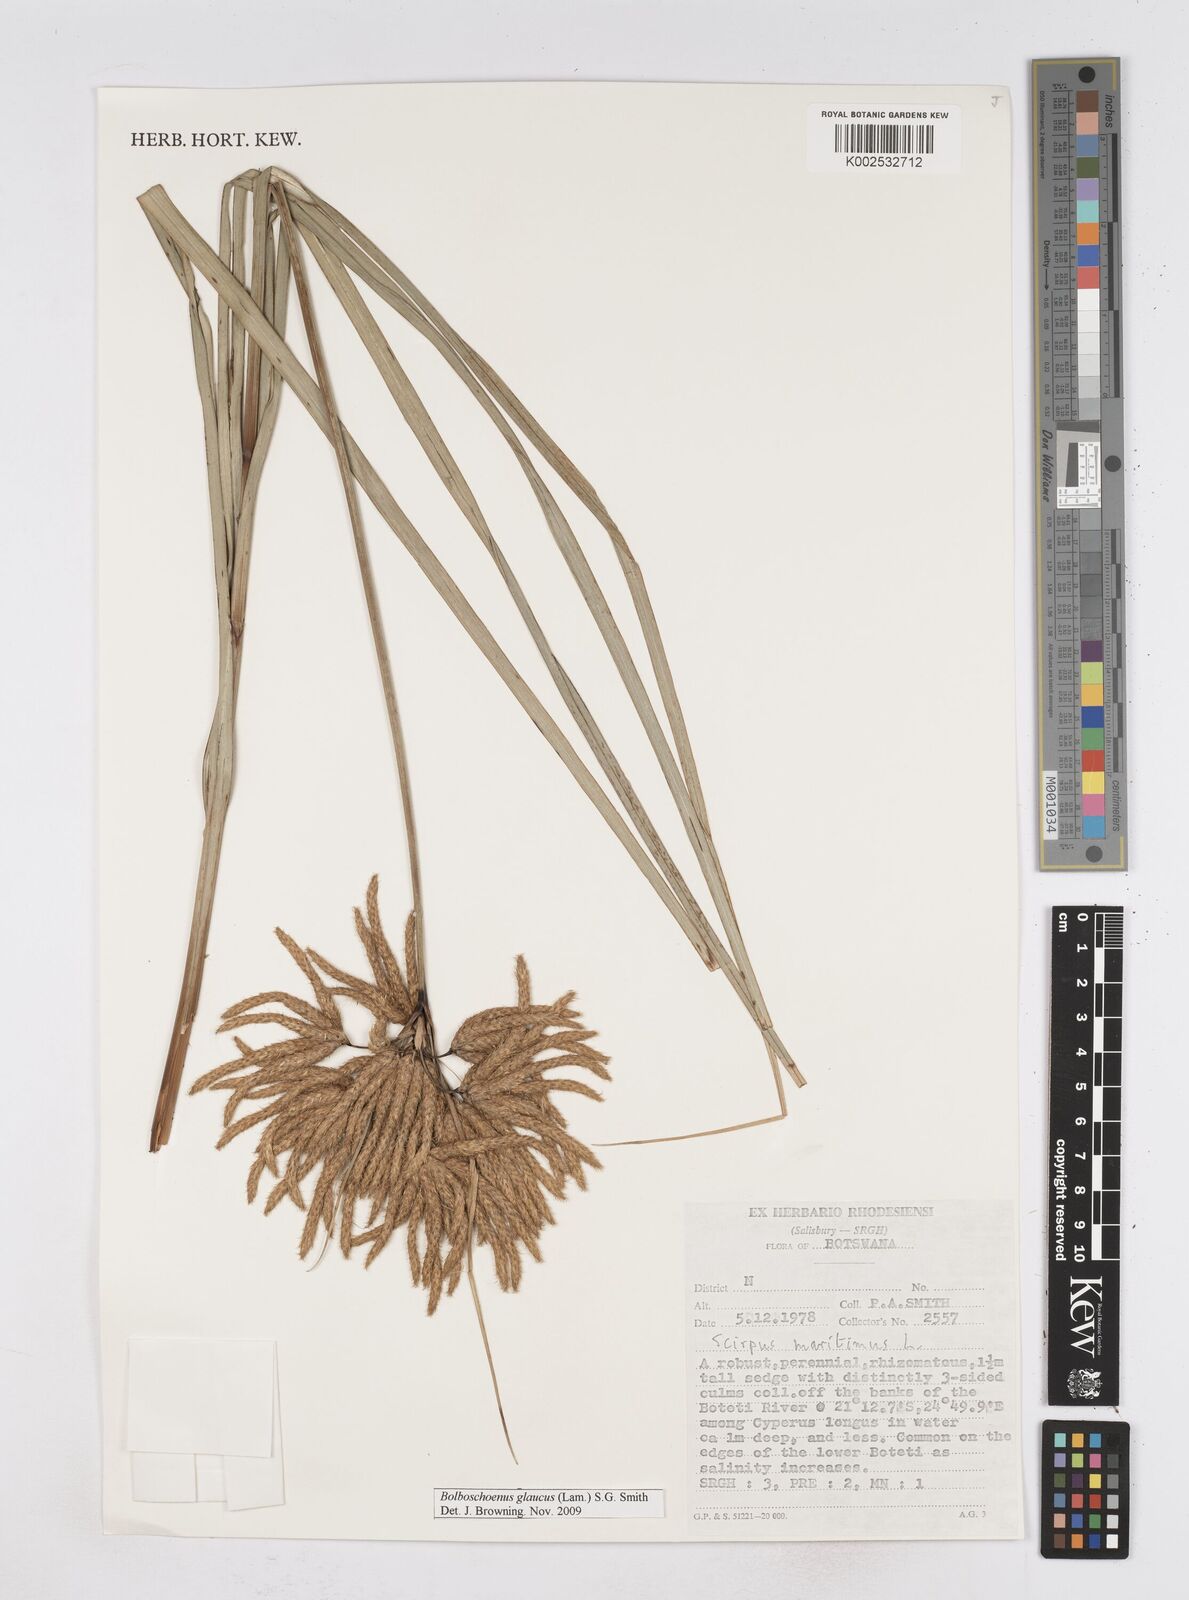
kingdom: Plantae
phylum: Tracheophyta
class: Liliopsida
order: Poales
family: Cyperaceae
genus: Bolboschoenus
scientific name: Bolboschoenus glaucus
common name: Tuberous bulrush
